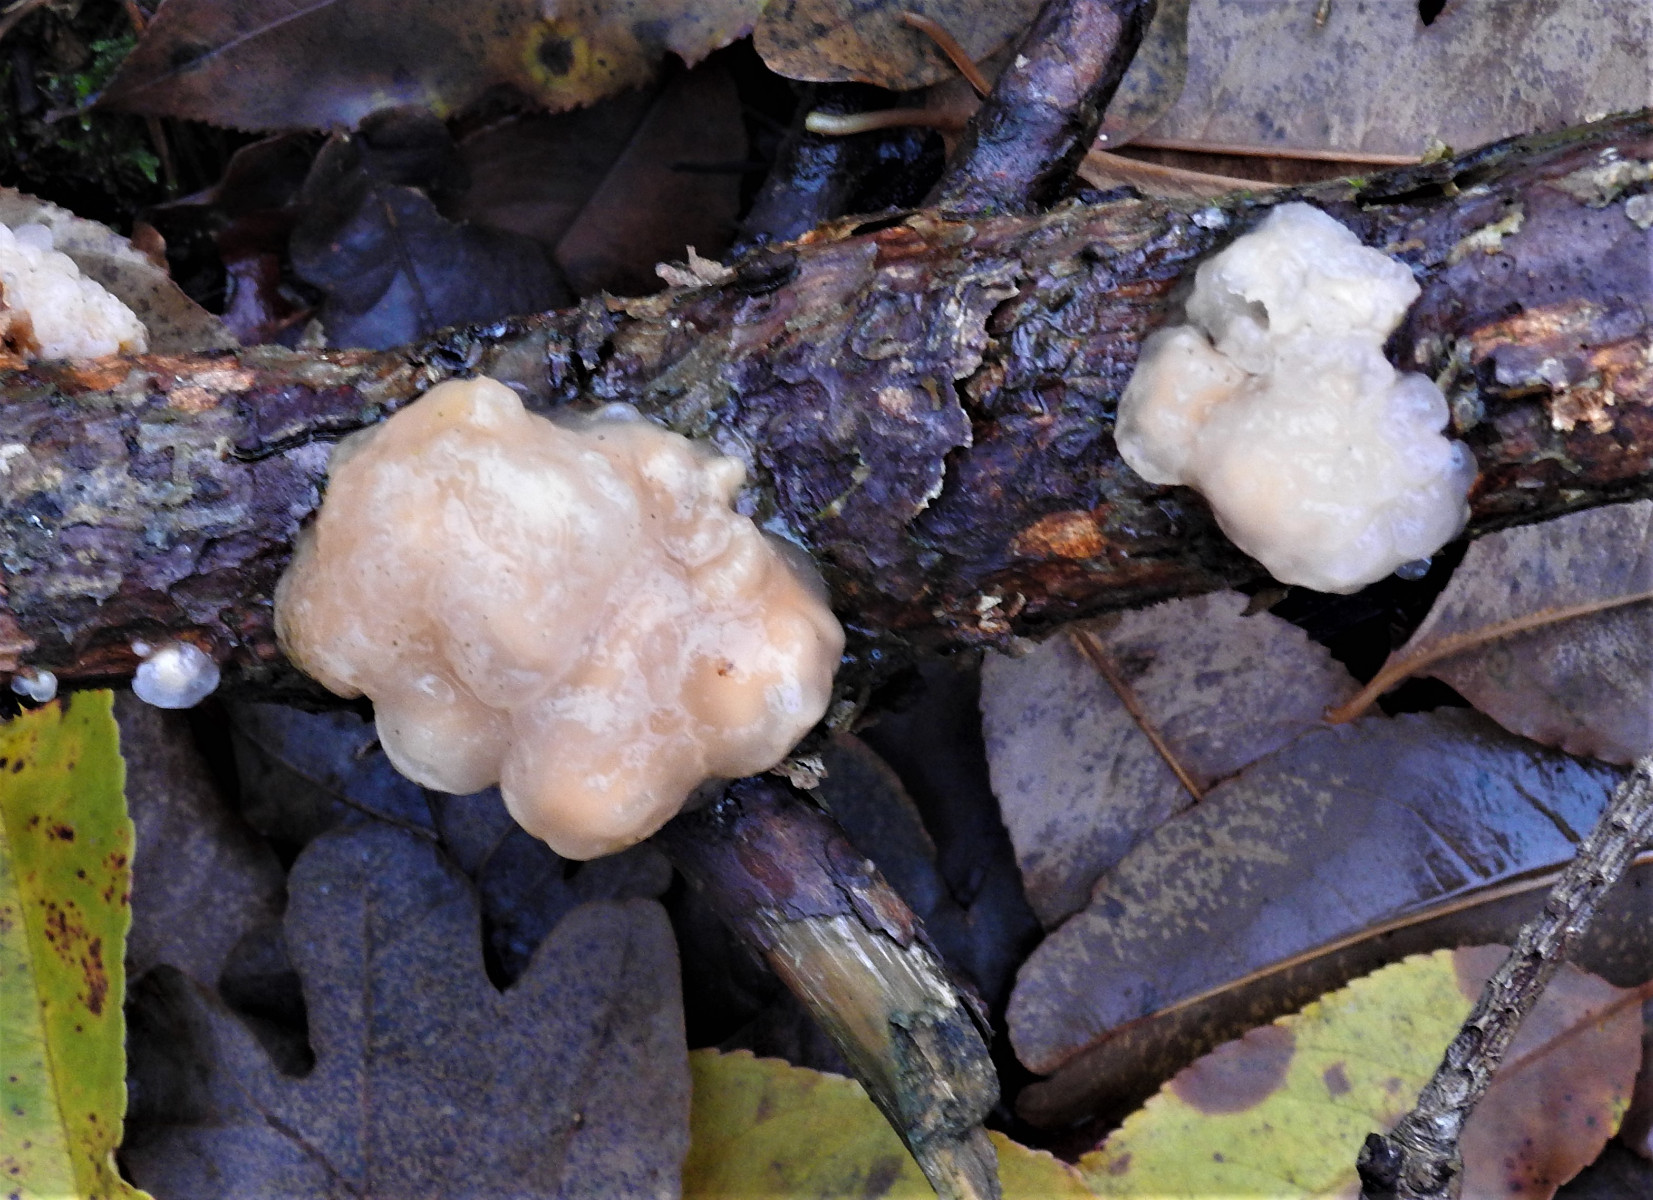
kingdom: Fungi
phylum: Basidiomycota
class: Tremellomycetes
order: Tremellales
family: Naemateliaceae
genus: Naematelia
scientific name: Naematelia encephala
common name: fyrre-bævresvamp
